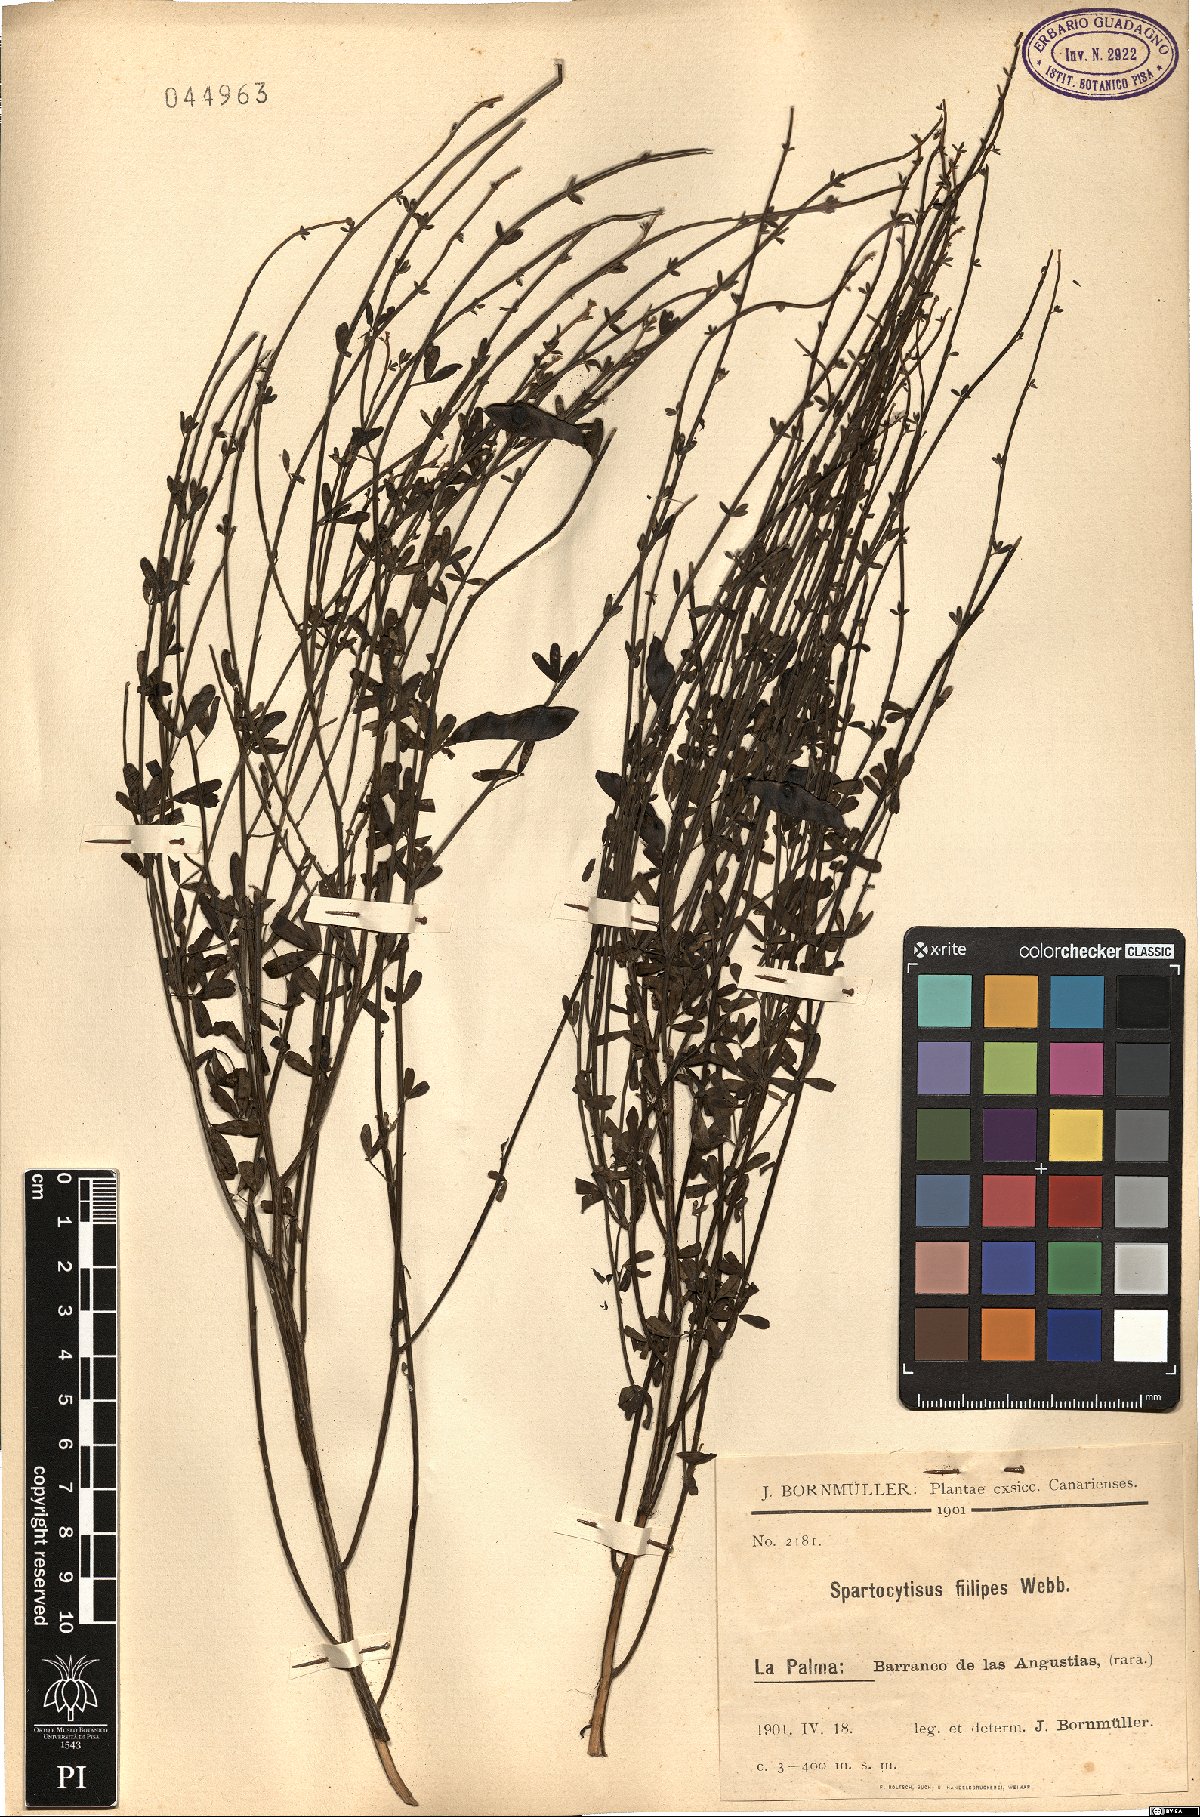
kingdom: Plantae
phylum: Tracheophyta
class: Magnoliopsida
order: Fabales
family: Fabaceae
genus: Cytisus
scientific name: Cytisus filipes
